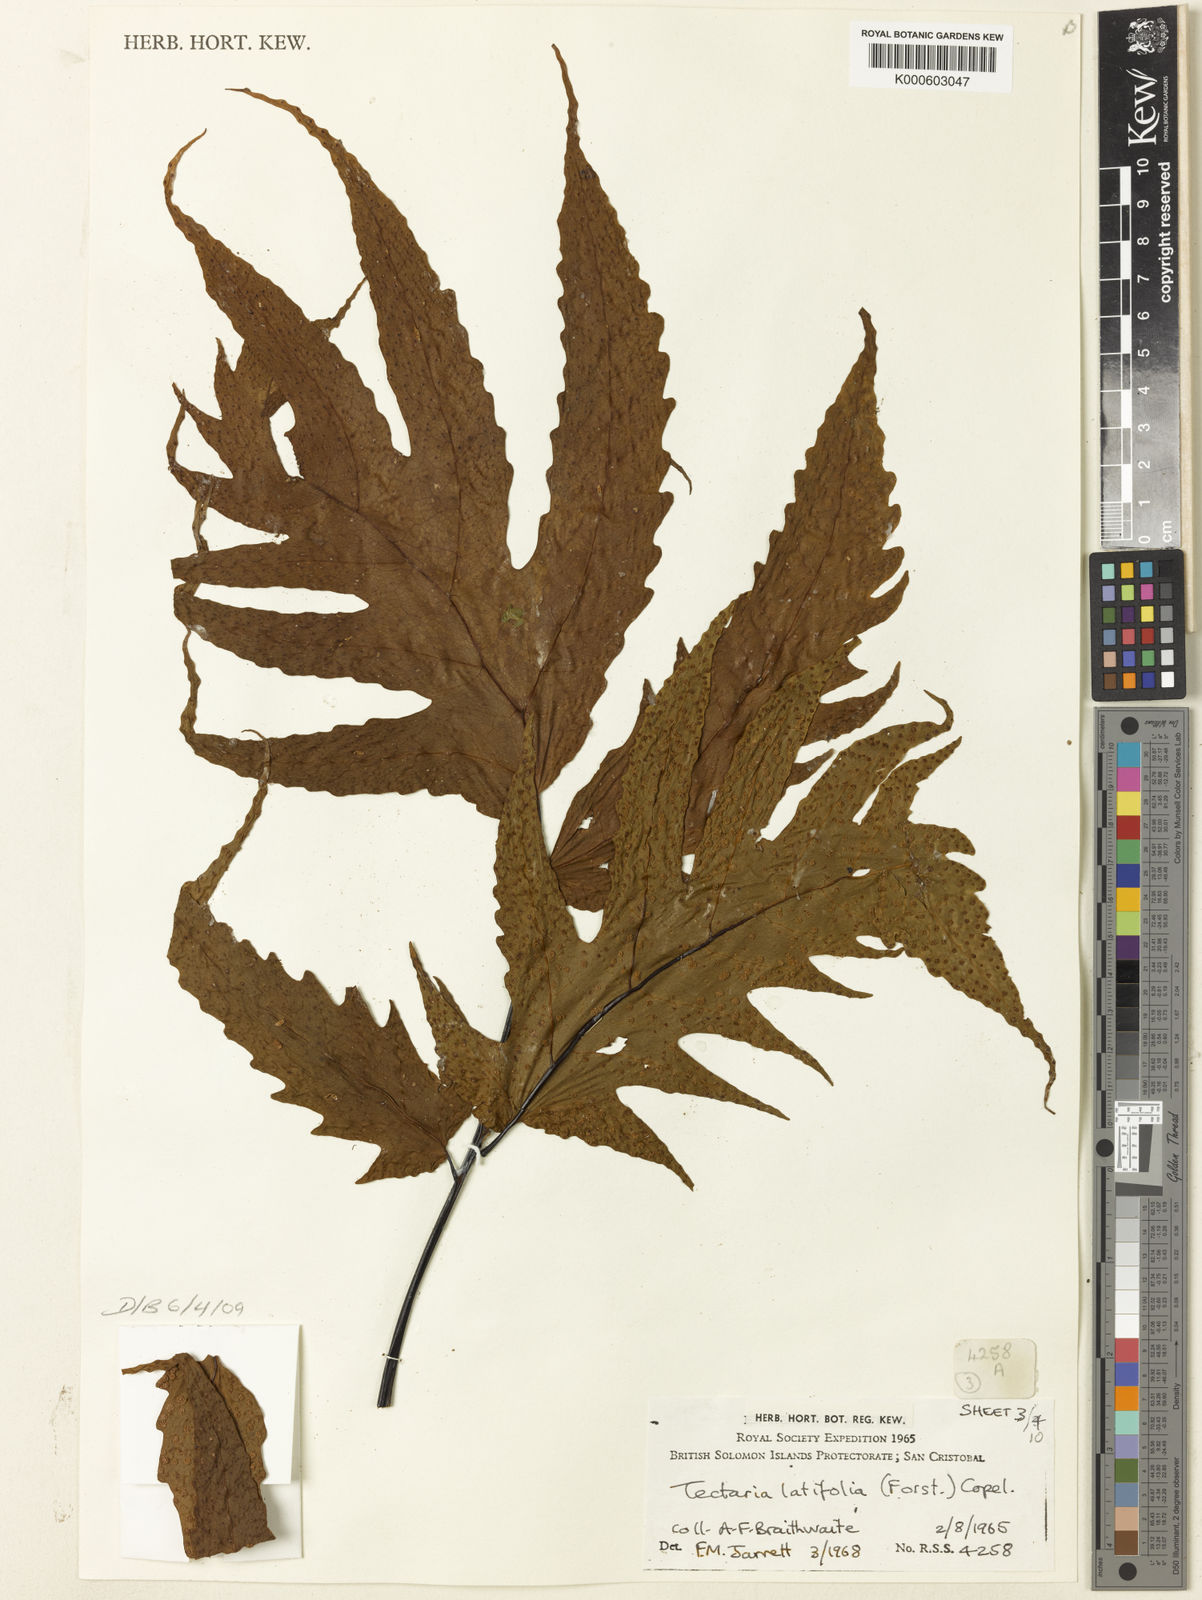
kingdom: Plantae
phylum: Tracheophyta
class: Polypodiopsida
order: Polypodiales
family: Tectariaceae
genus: Tectaria
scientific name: Tectaria
